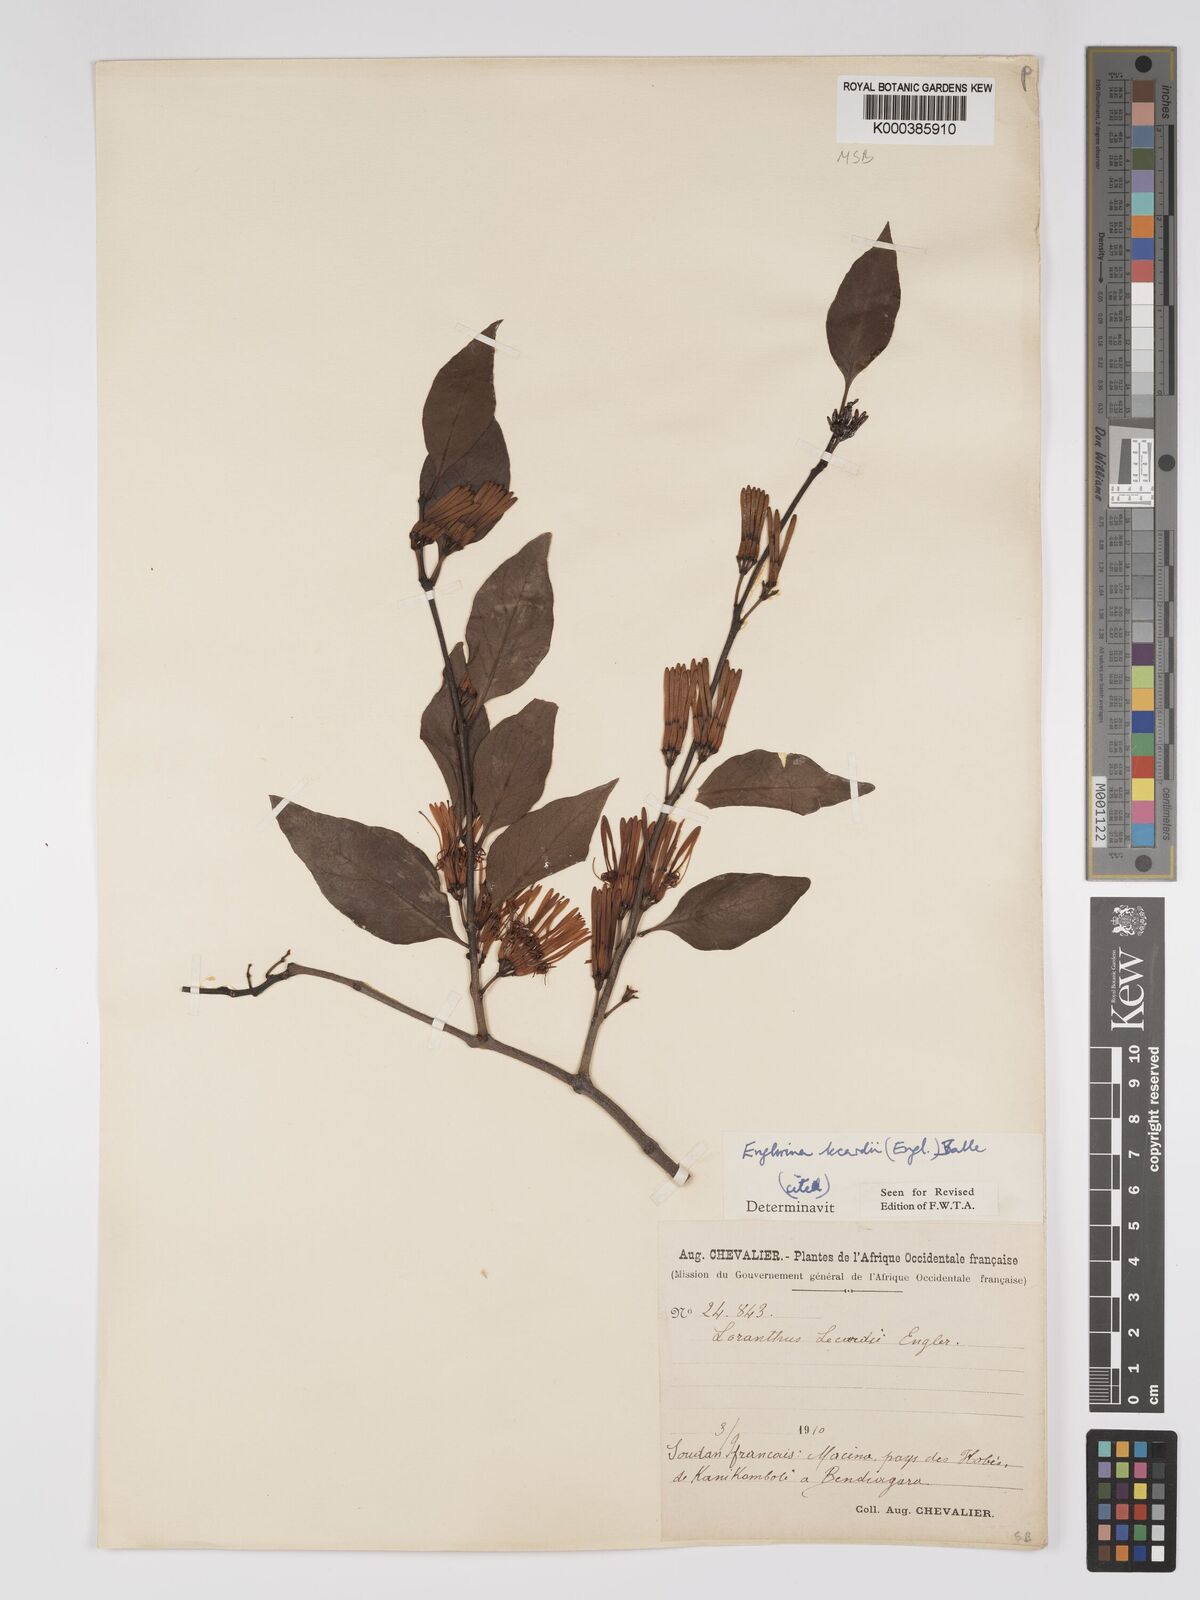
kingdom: Plantae
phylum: Tracheophyta
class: Magnoliopsida
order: Santalales
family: Loranthaceae
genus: Englerina
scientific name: Englerina lecardii
